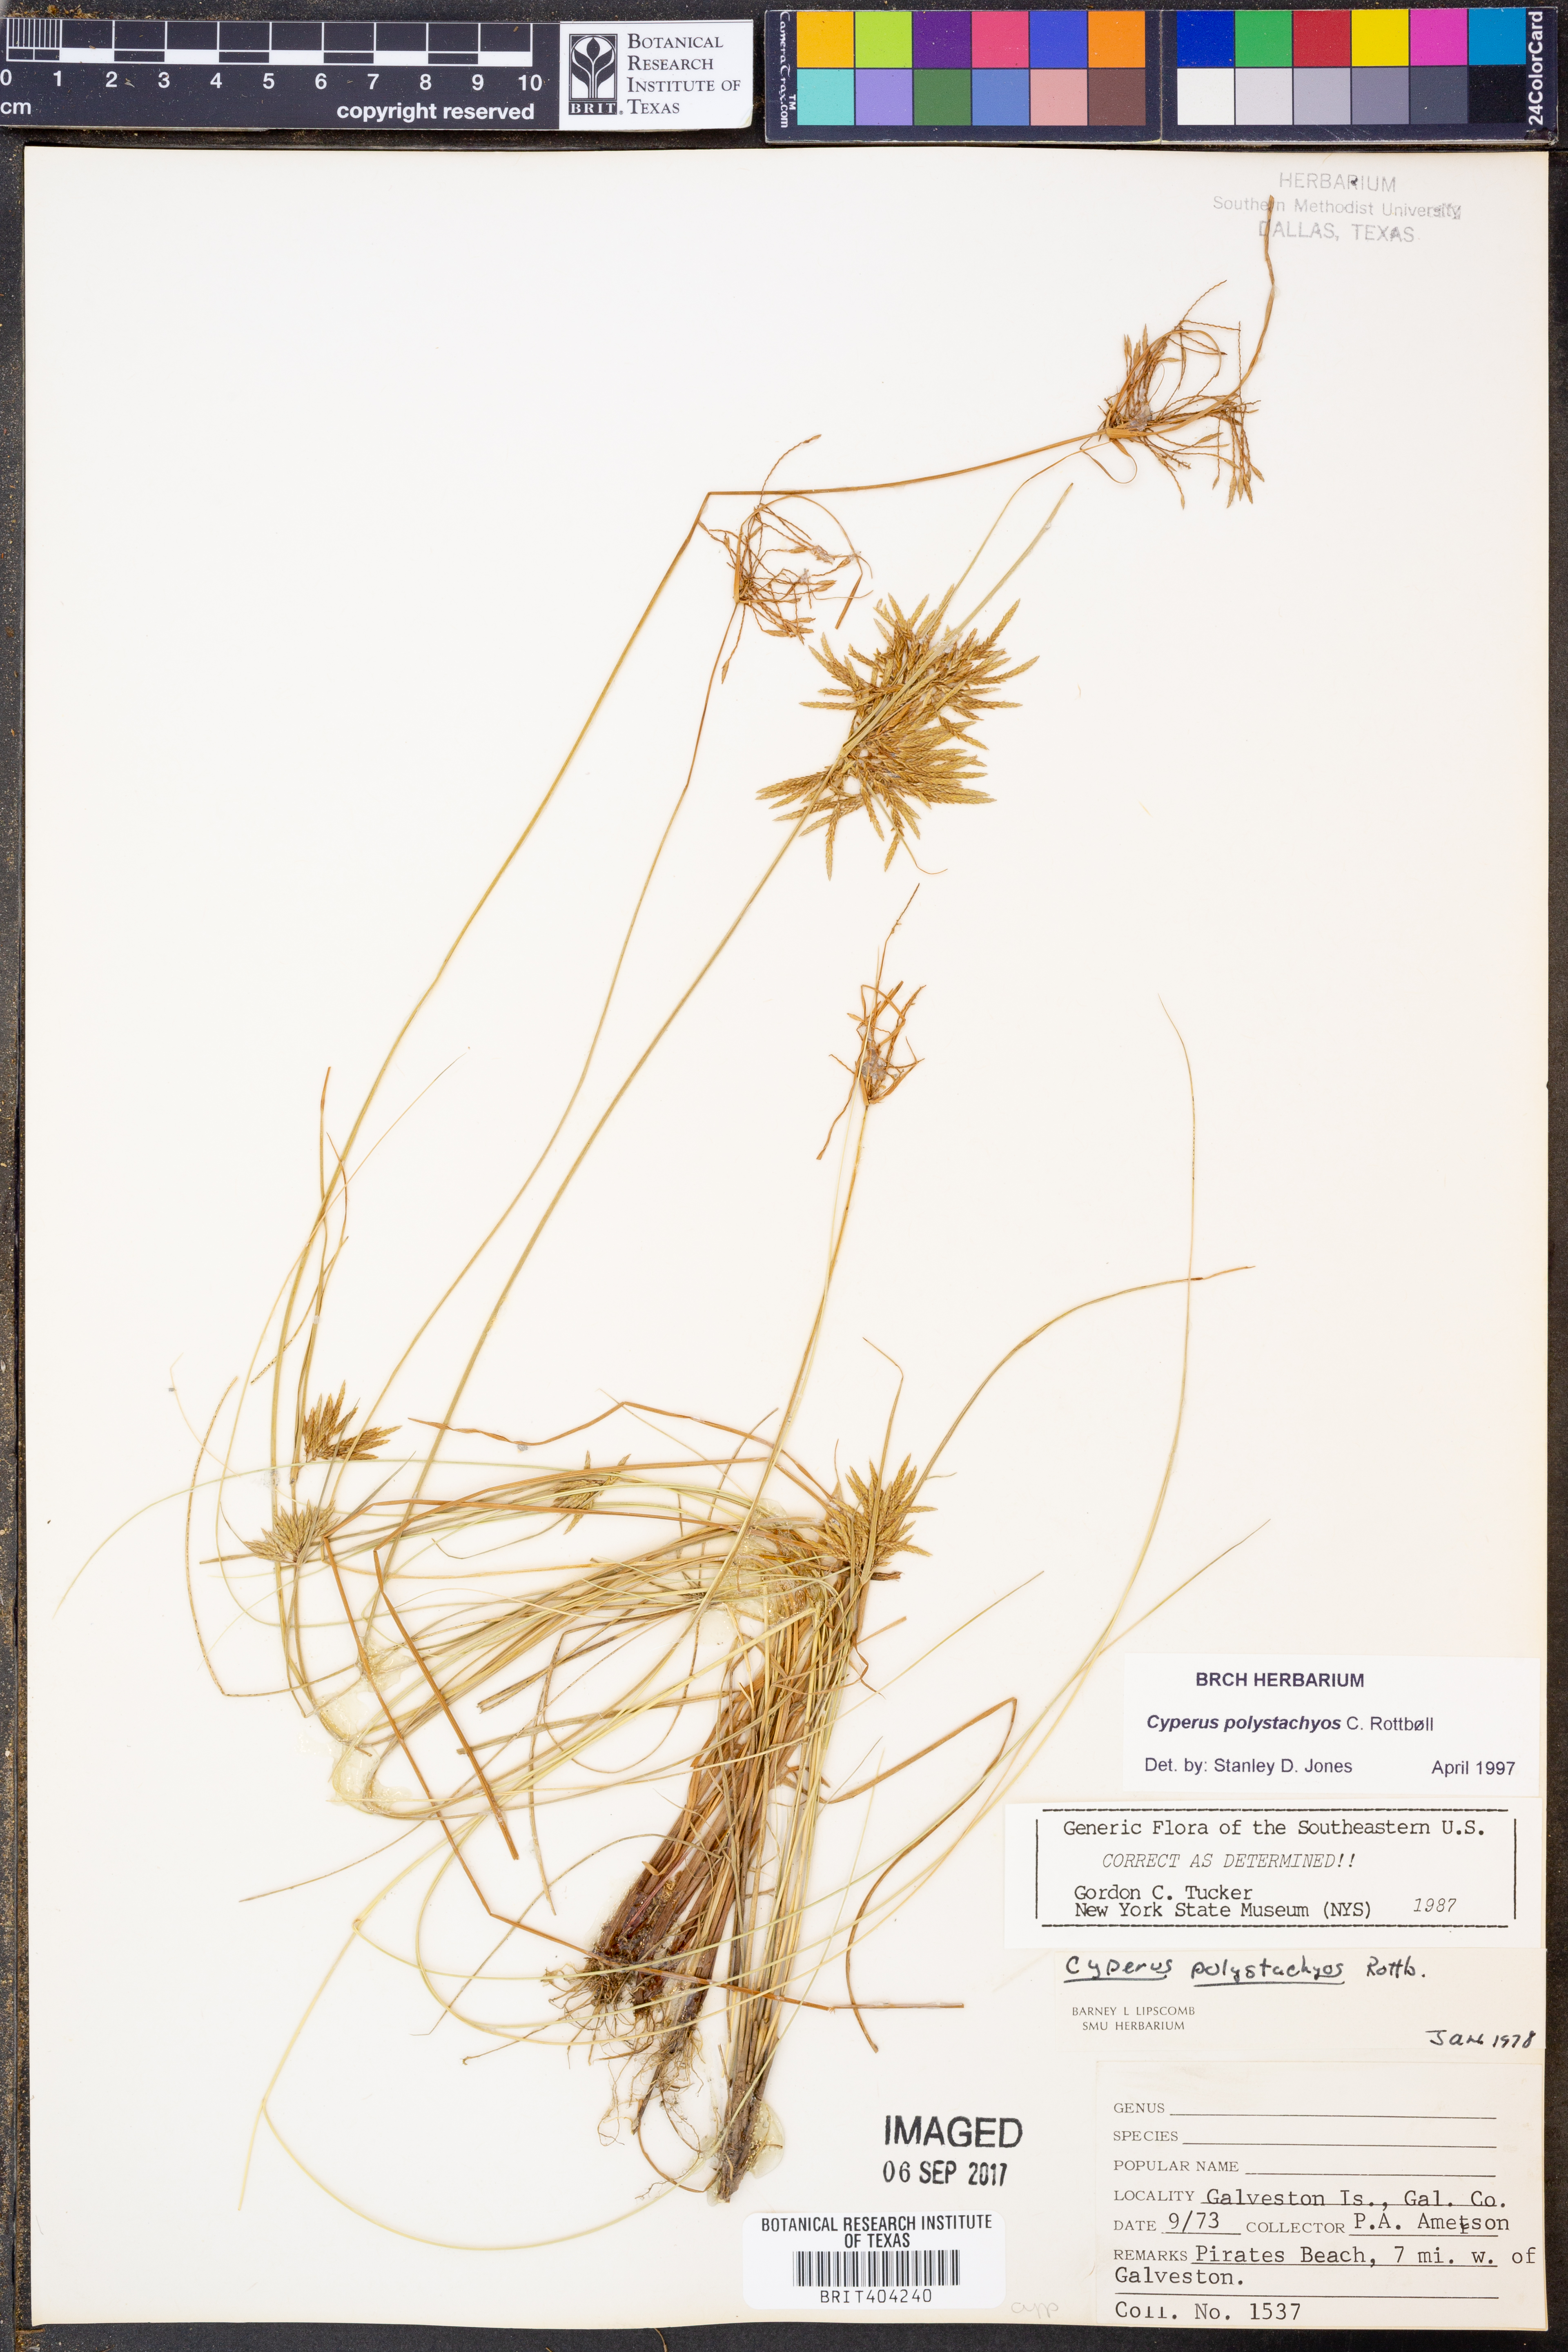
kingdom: Plantae
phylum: Tracheophyta
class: Liliopsida
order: Poales
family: Cyperaceae
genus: Cyperus
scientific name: Cyperus polystachyos
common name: Bunchy flat sedge
